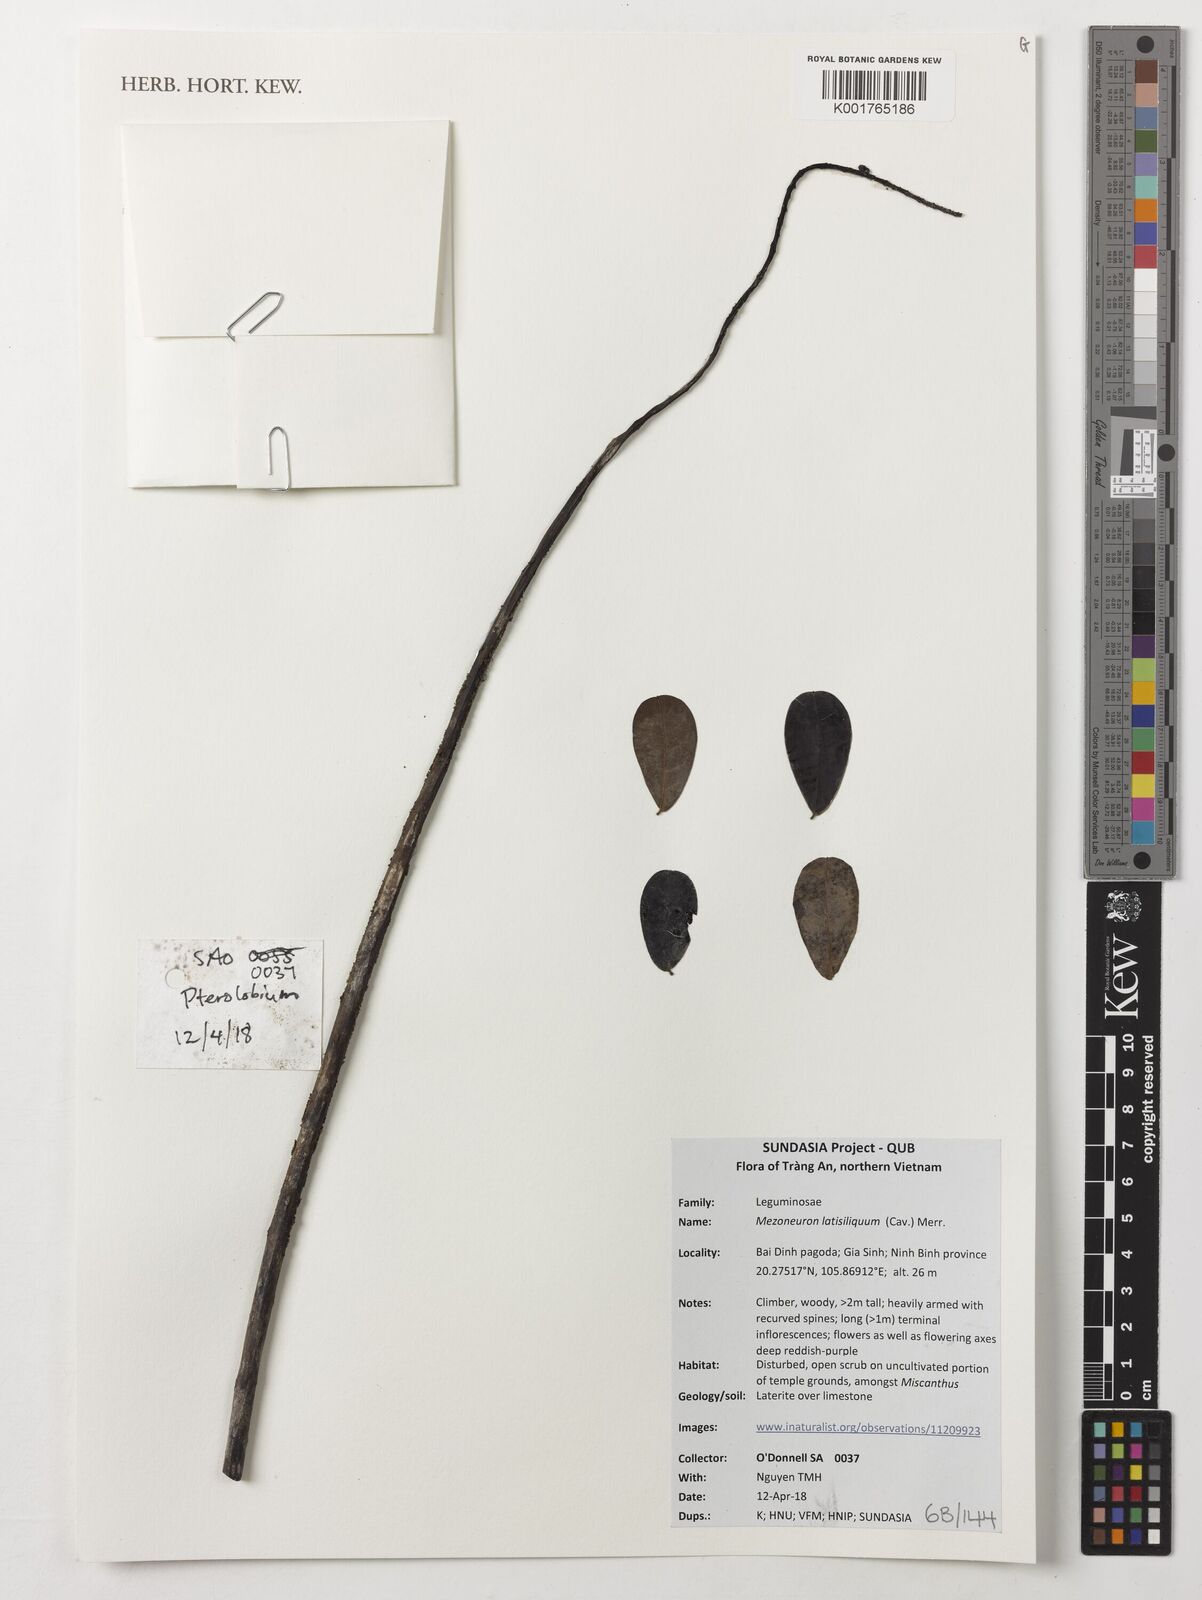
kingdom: Plantae
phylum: Tracheophyta
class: Magnoliopsida
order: Fabales
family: Fabaceae
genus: Mezoneuron
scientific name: Mezoneuron latisiliquum
